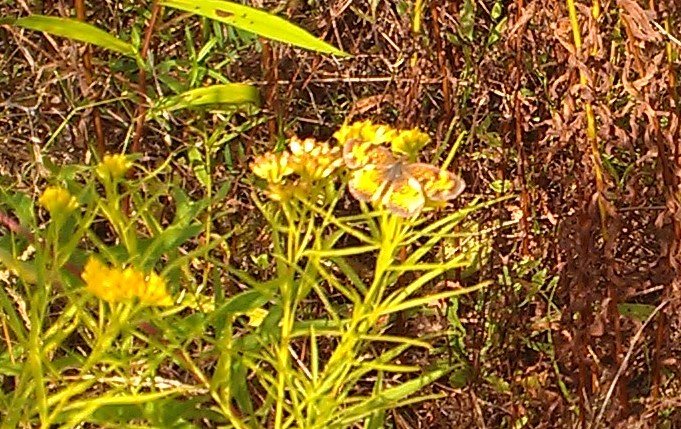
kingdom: Animalia
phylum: Arthropoda
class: Insecta
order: Lepidoptera
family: Nymphalidae
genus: Phyciodes
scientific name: Phyciodes tharos
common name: Northern Crescent
